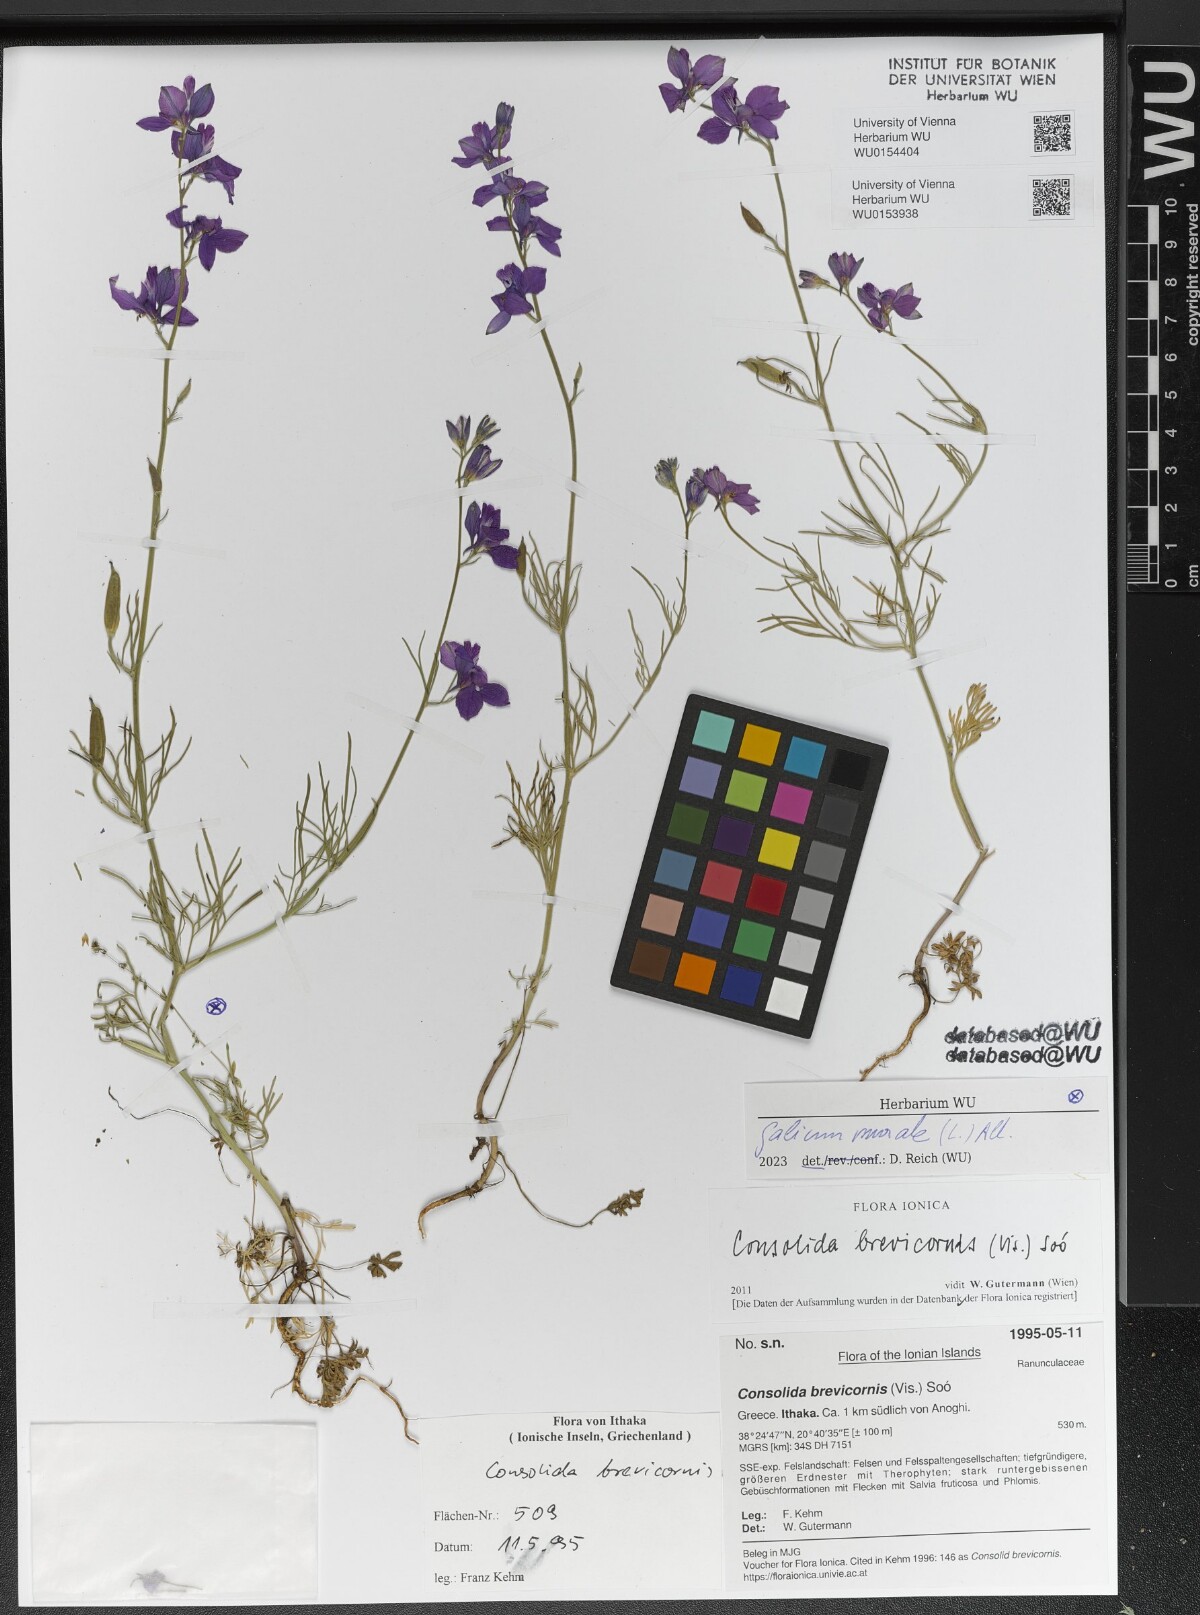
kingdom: Plantae
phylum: Tracheophyta
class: Magnoliopsida
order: Ranunculales
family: Ranunculaceae
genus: Delphinium
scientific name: Delphinium brevicorne
